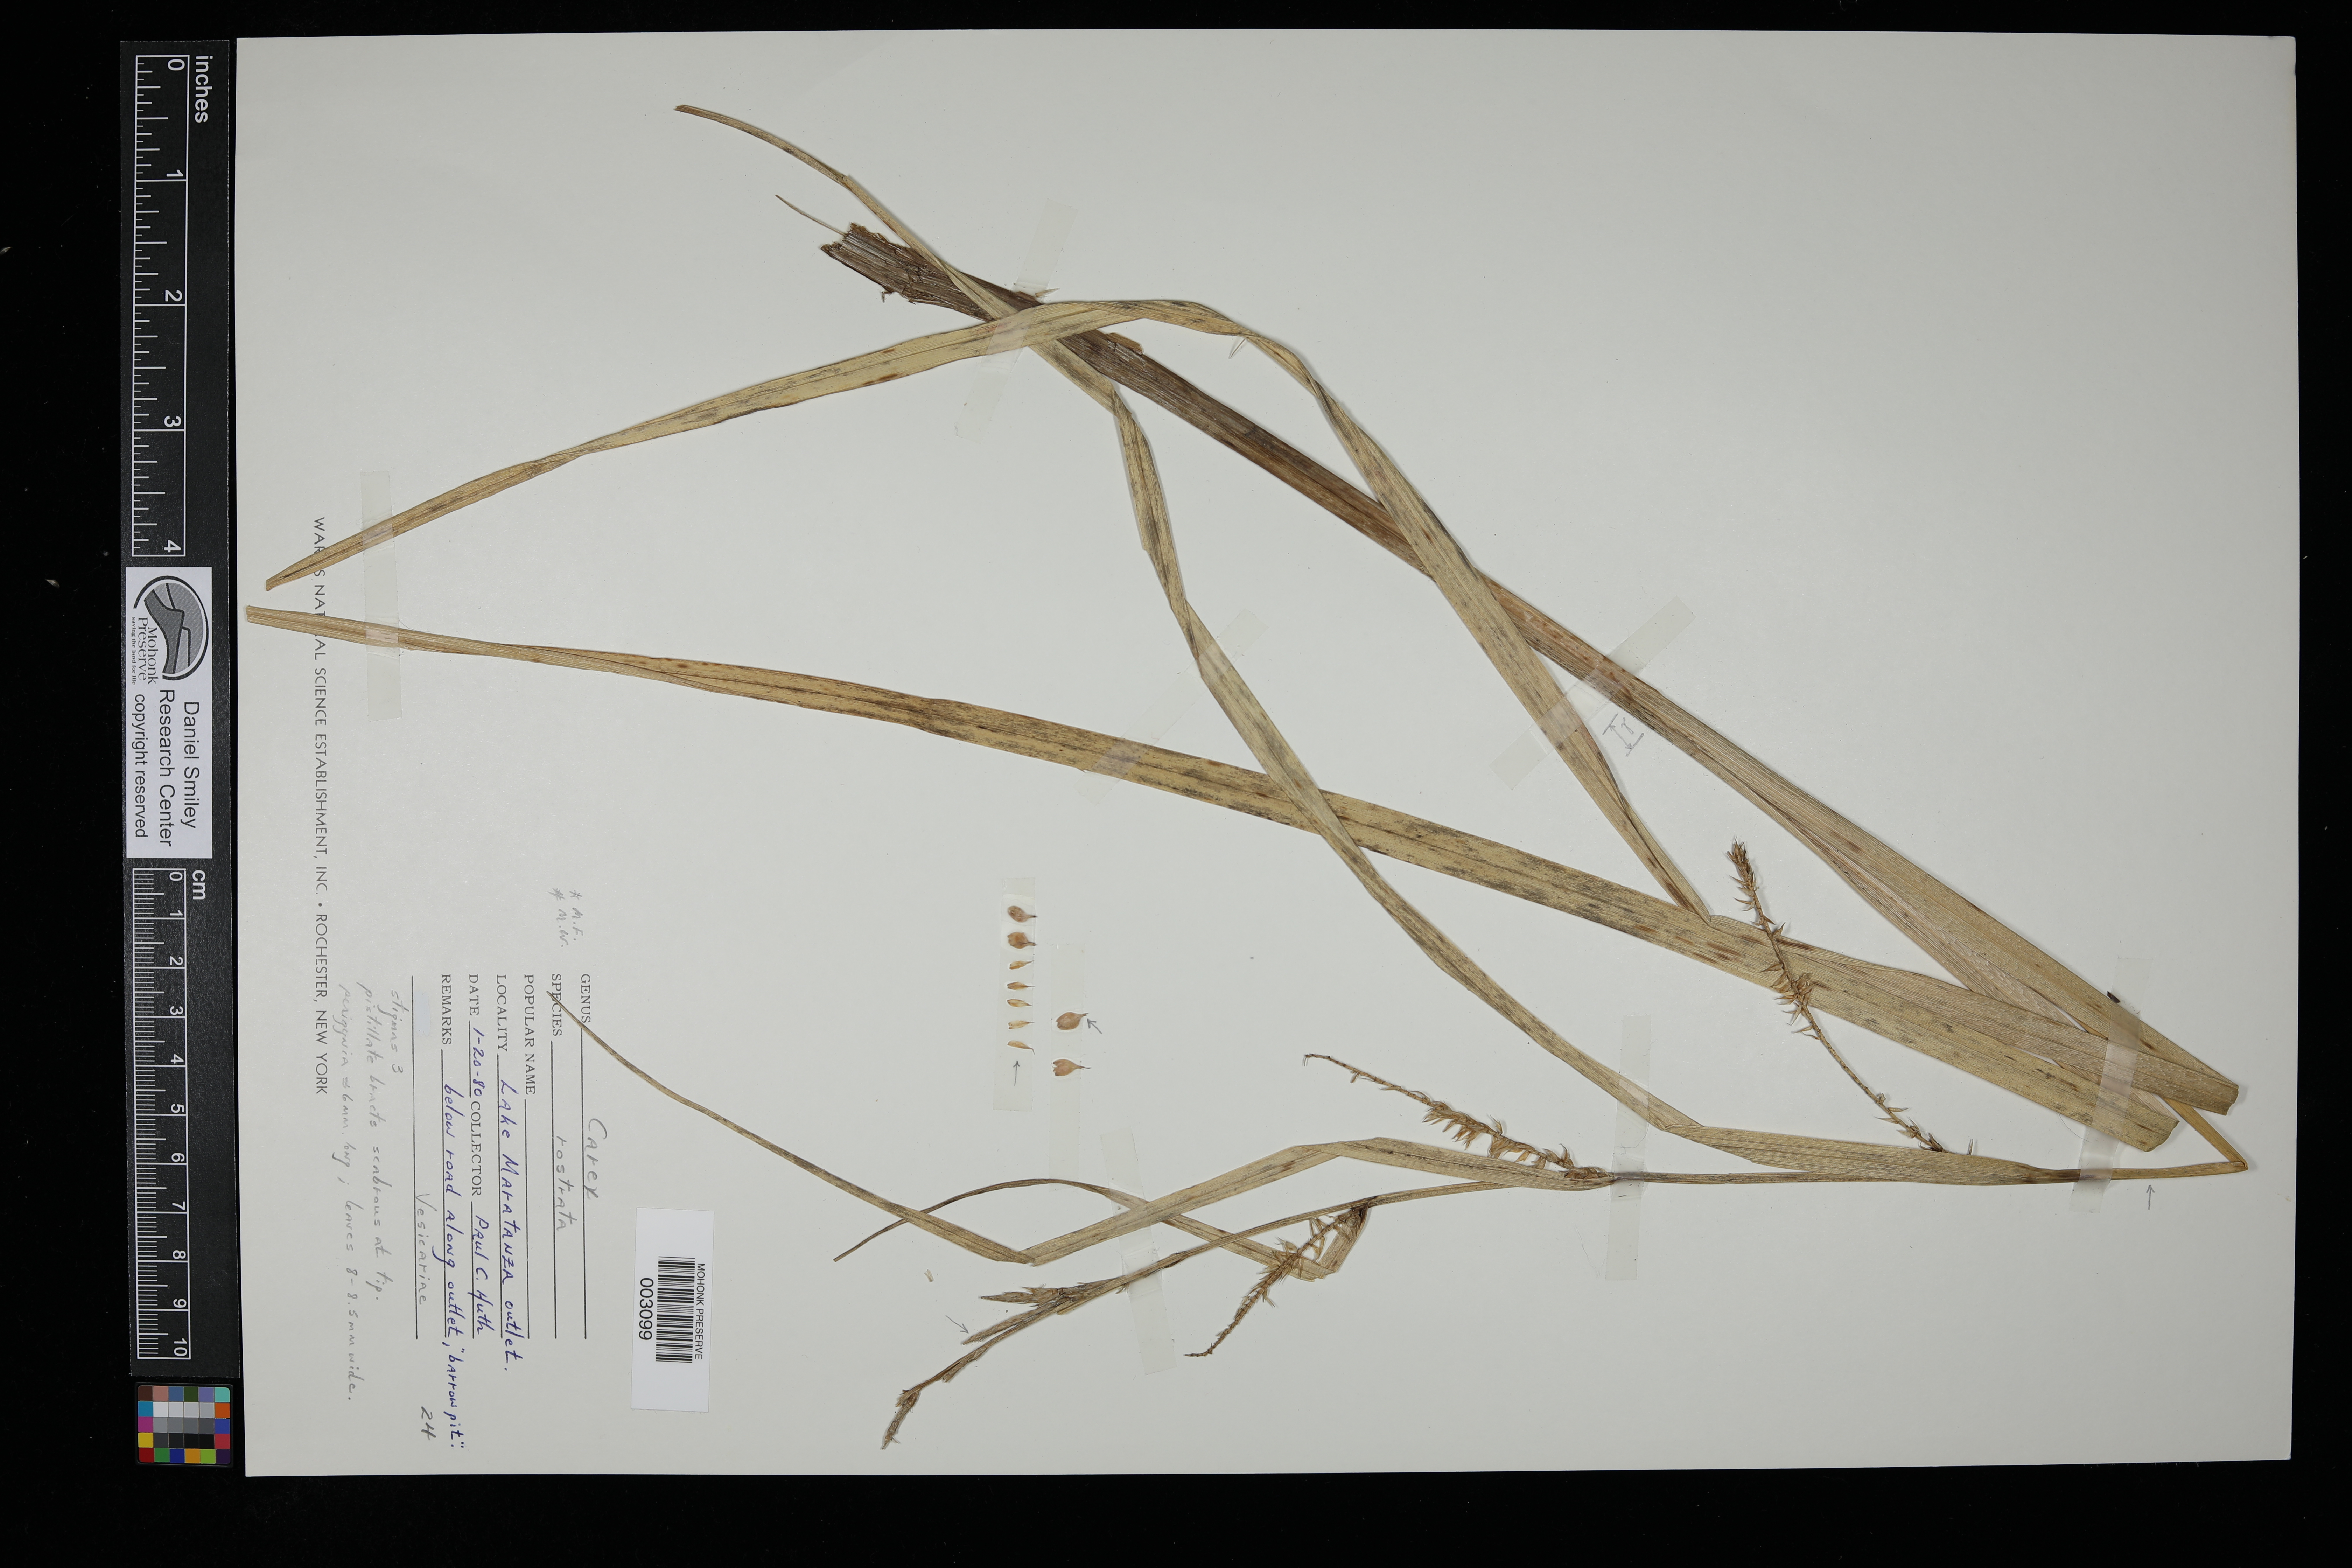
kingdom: Plantae
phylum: Tracheophyta
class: Liliopsida
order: Poales
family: Cyperaceae
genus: Carex
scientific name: Carex lurida
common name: Sallow sedge
